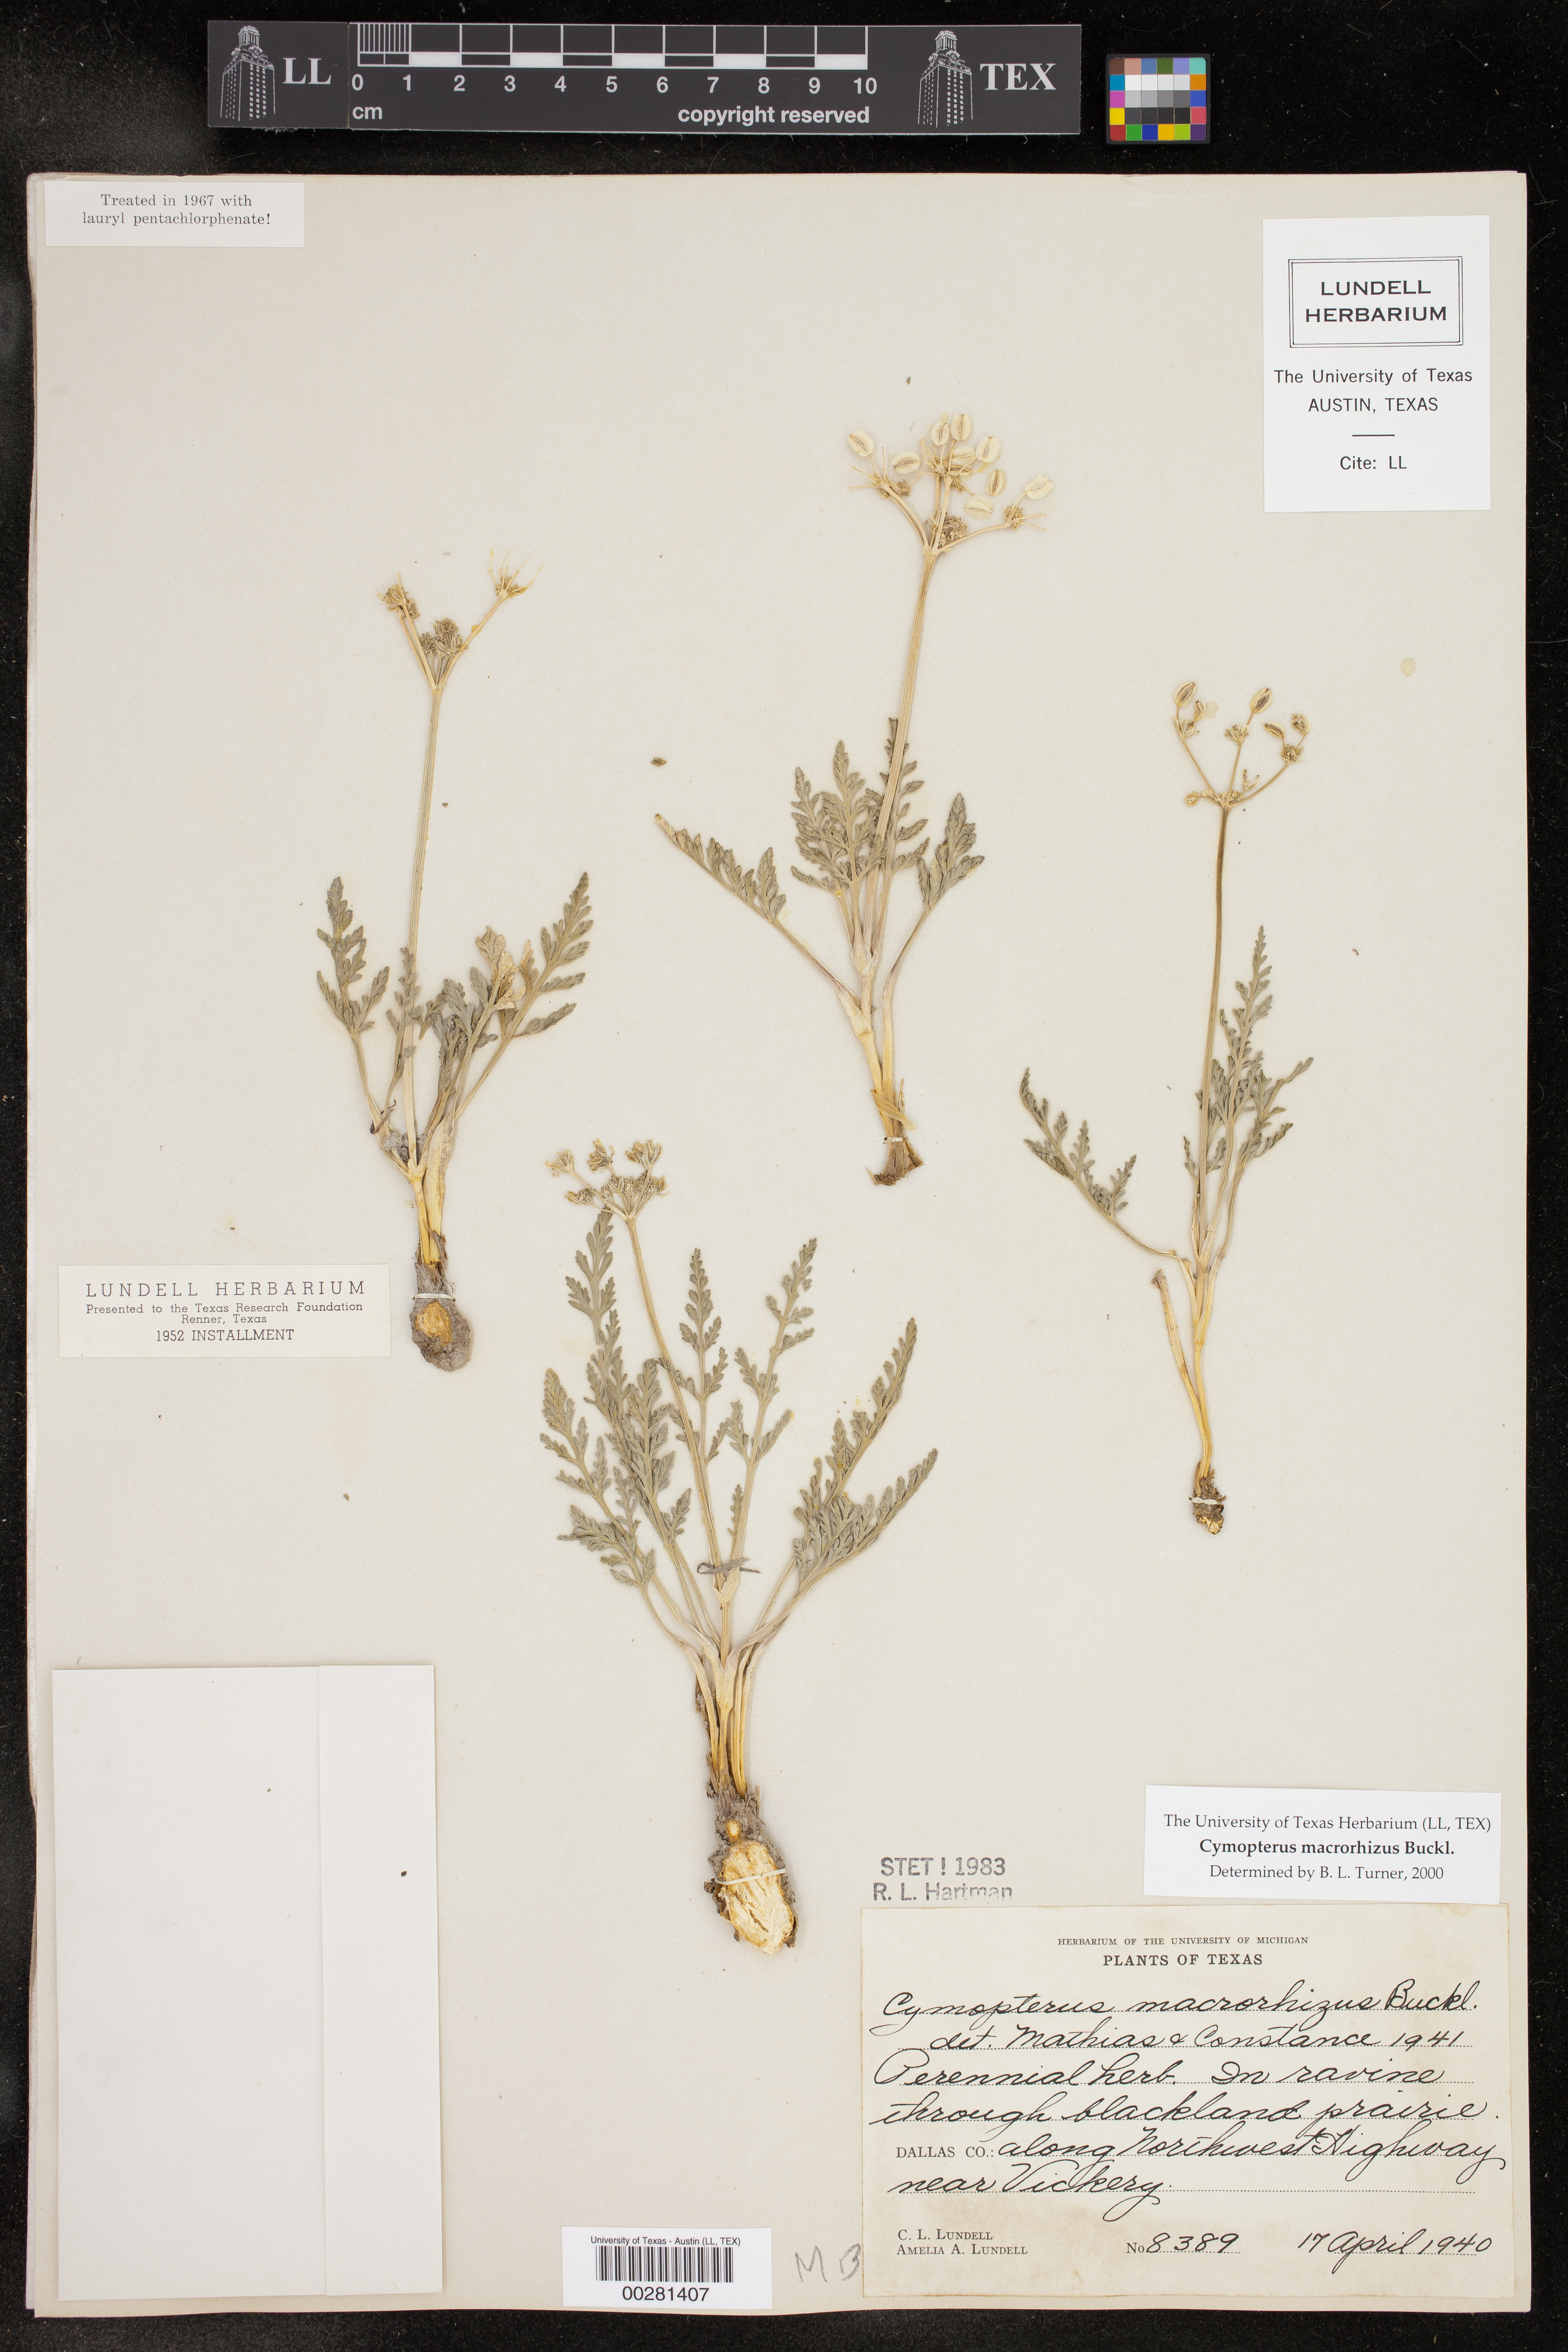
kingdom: Plantae
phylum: Tracheophyta
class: Magnoliopsida
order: Apiales
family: Apiaceae
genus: Vesper
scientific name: Vesper macrorhizus
